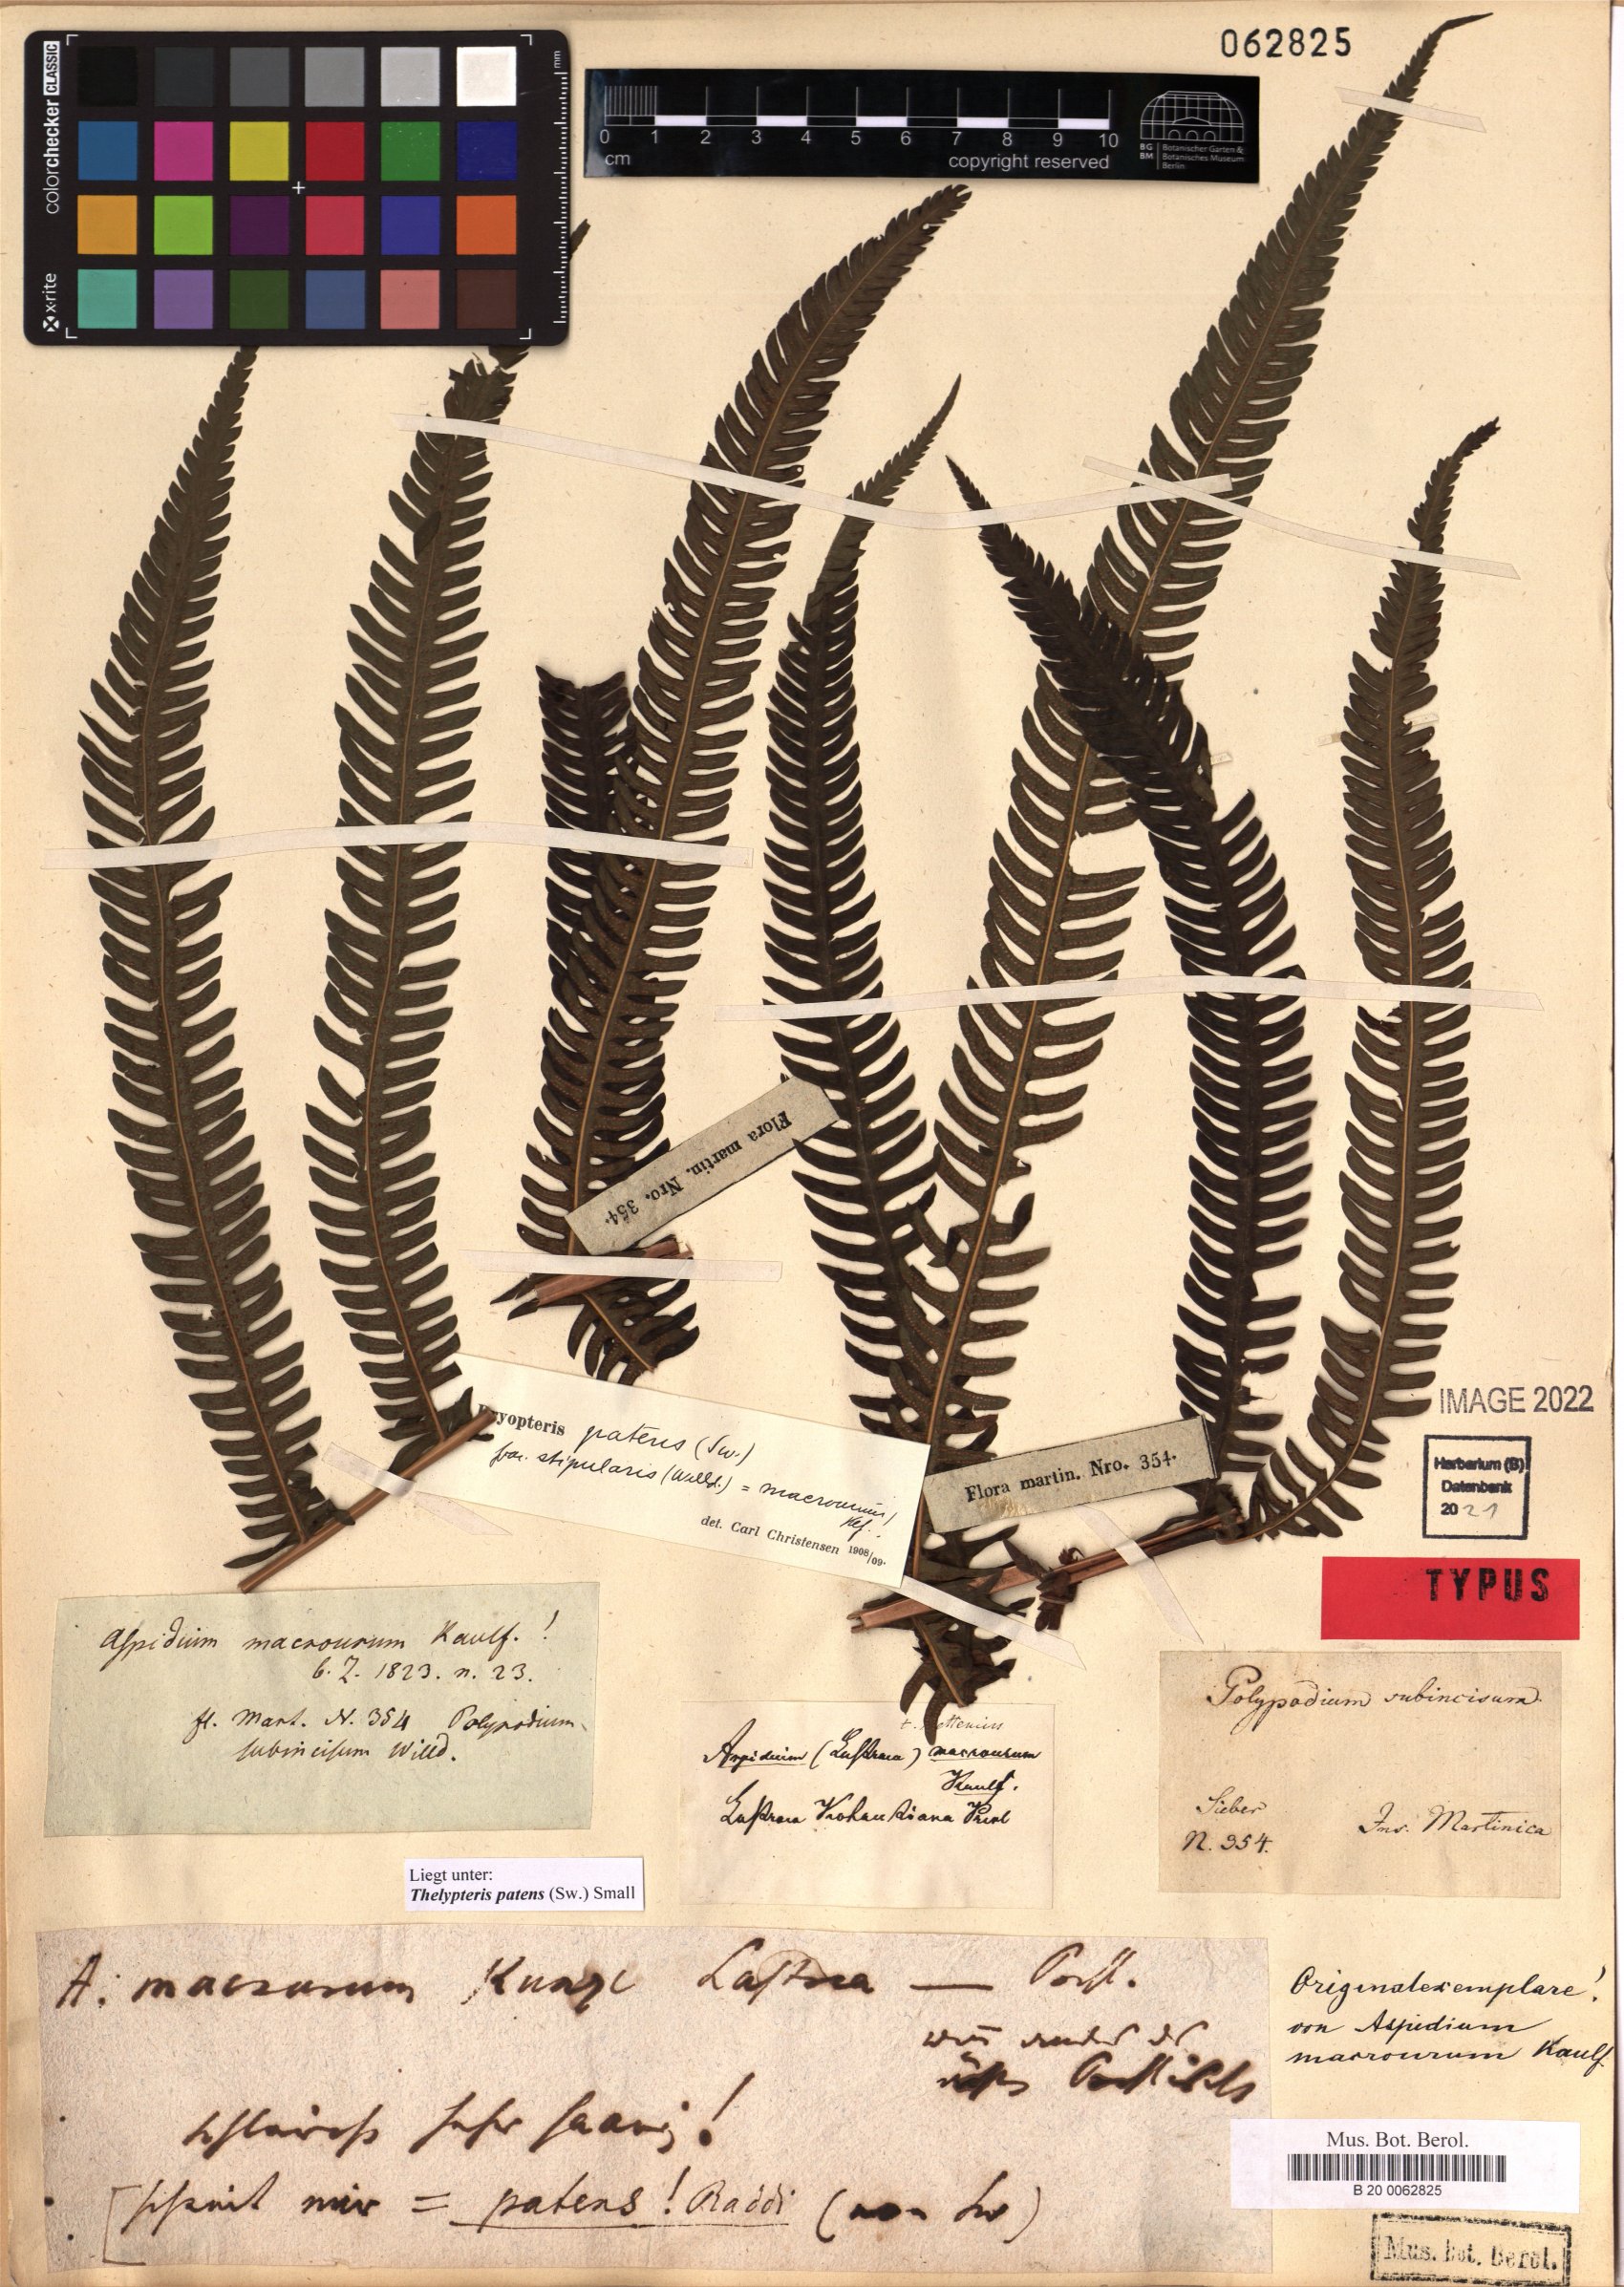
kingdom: Plantae
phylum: Tracheophyta
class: Polypodiopsida
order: Polypodiales
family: Thelypteridaceae
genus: Pelazoneuron
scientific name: Pelazoneuron patens
